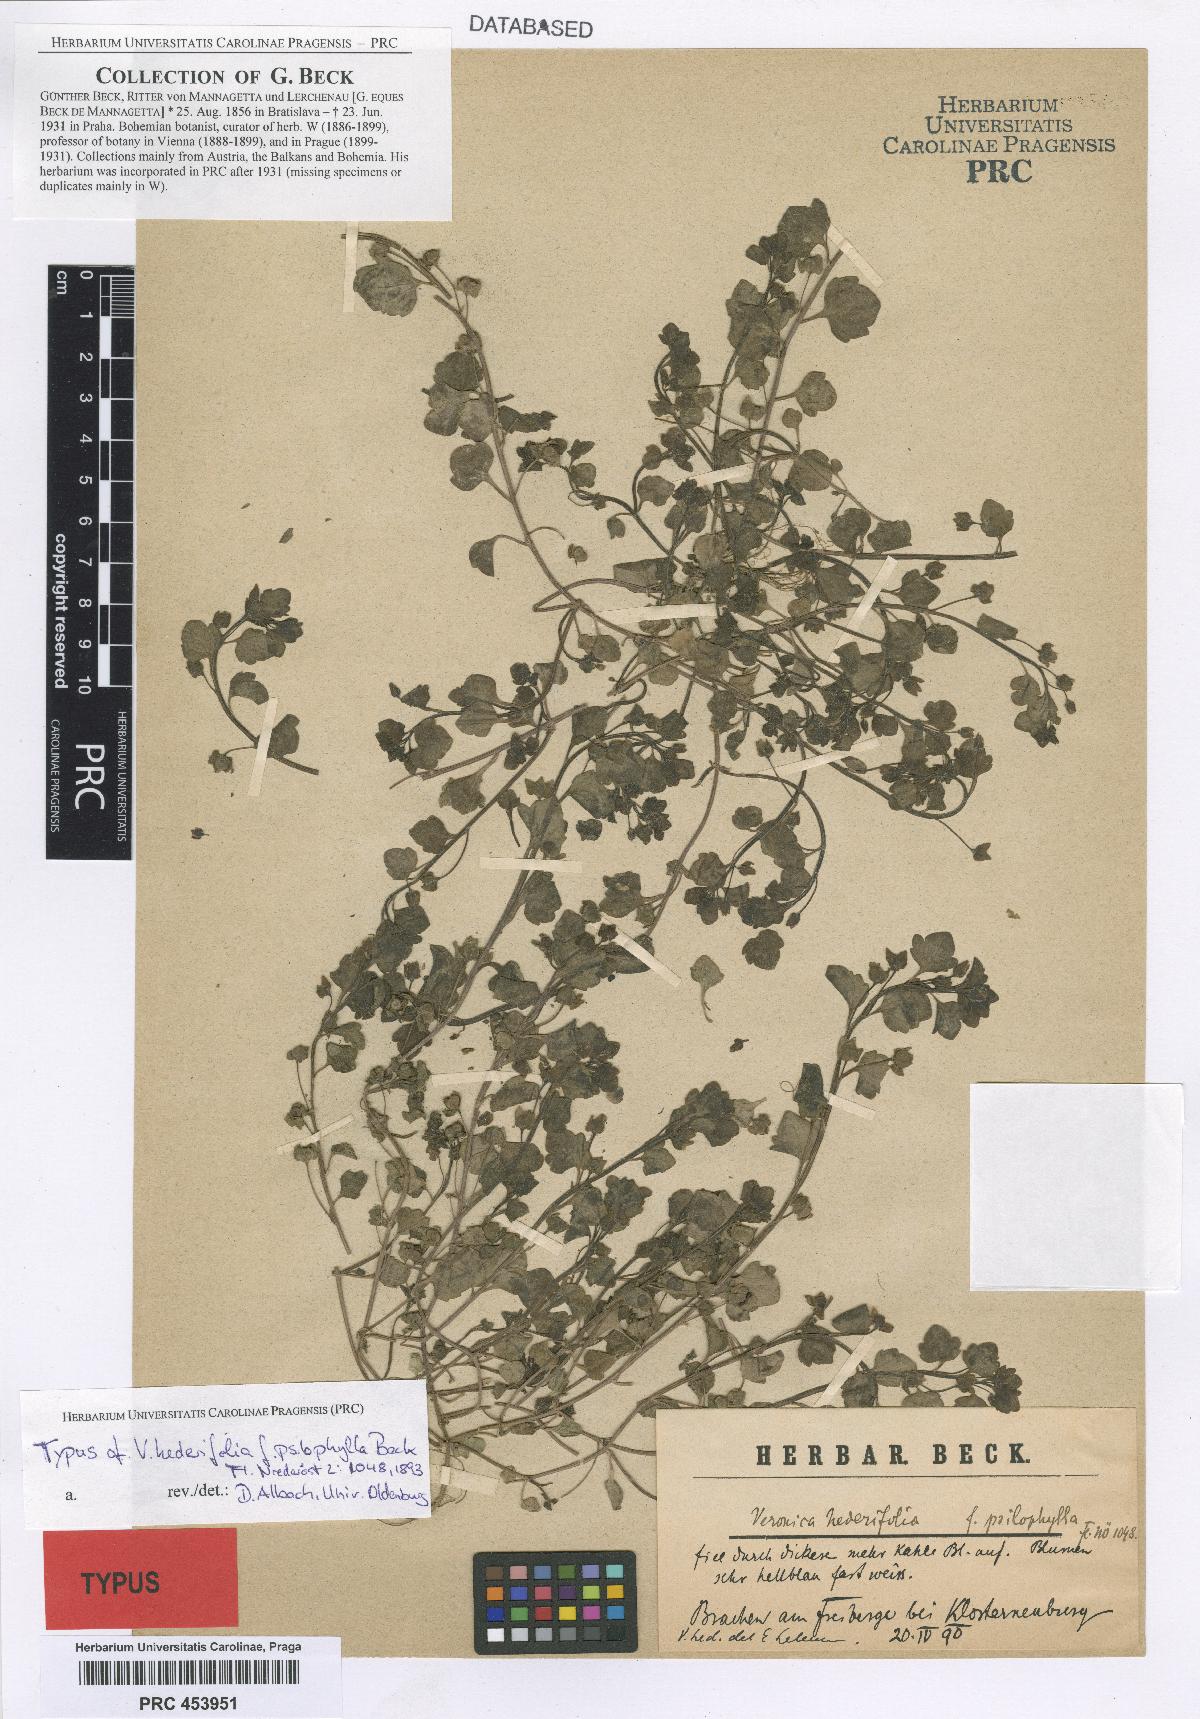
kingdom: Plantae
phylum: Tracheophyta
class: Magnoliopsida
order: Lamiales
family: Plantaginaceae
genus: Veronica
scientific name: Veronica hederifolia
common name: Ivy-leaved speedwell
